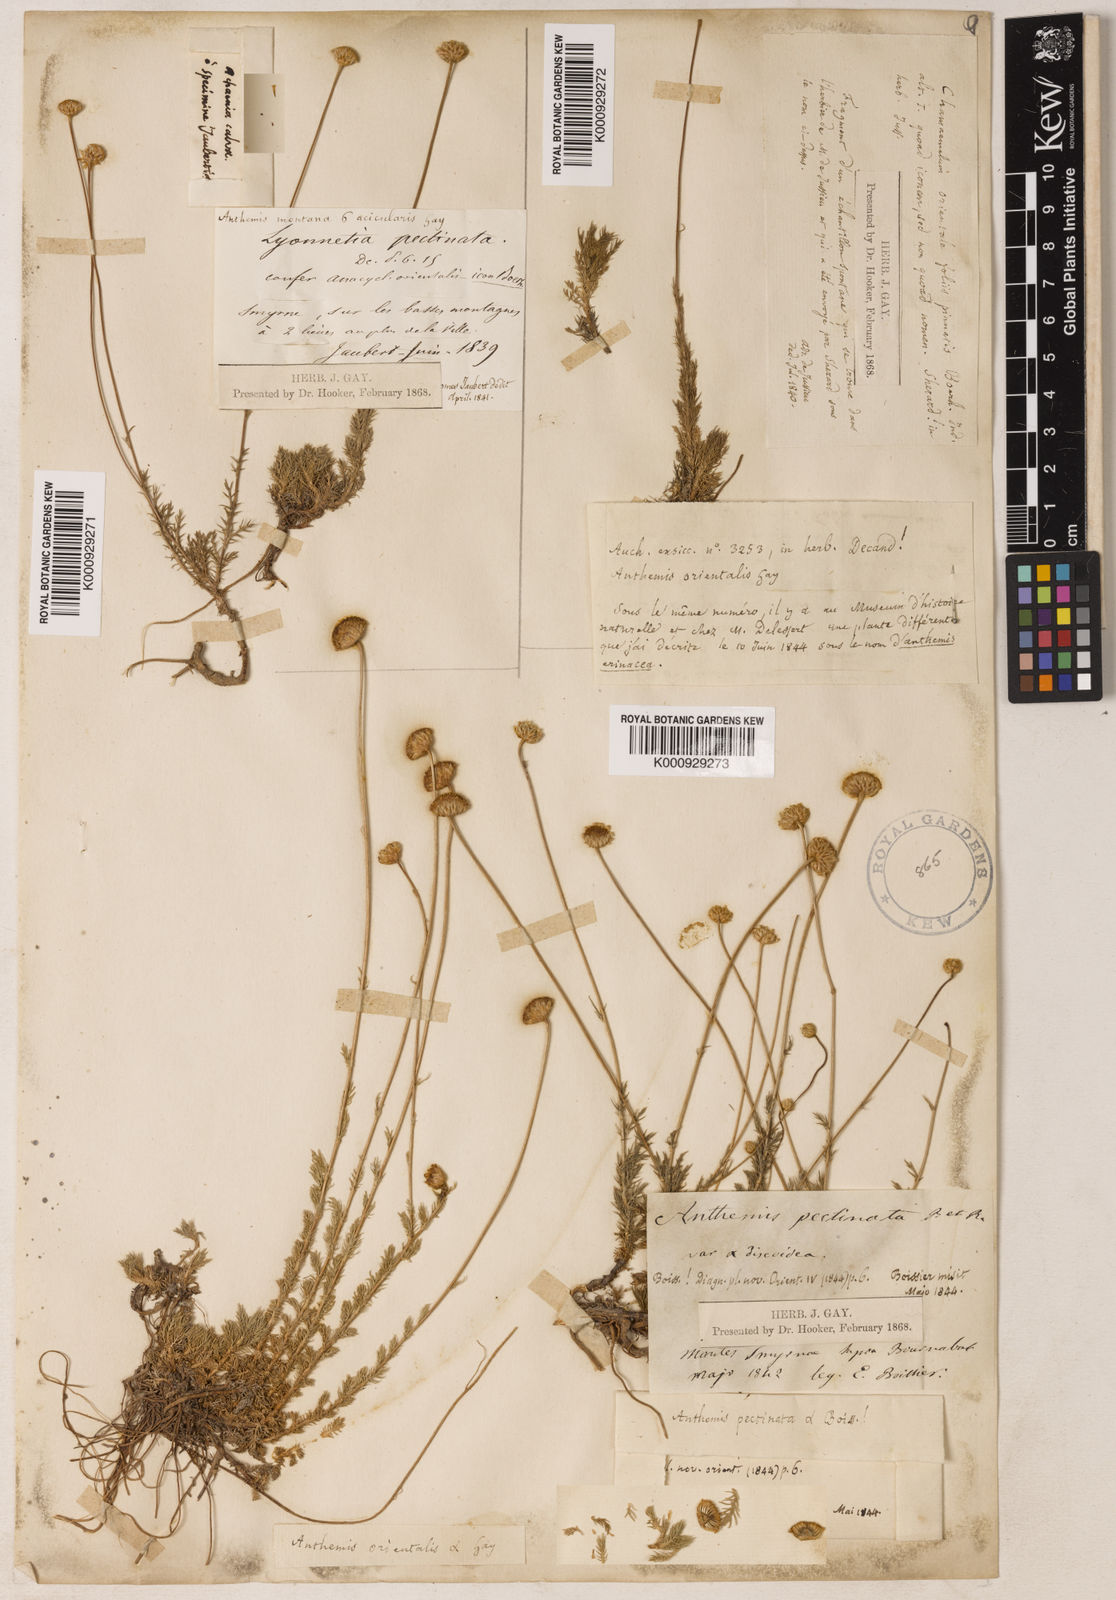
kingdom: Plantae
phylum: Tracheophyta
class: Magnoliopsida
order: Asterales
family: Asteraceae
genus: Anthemis
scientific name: Anthemis orientalis
